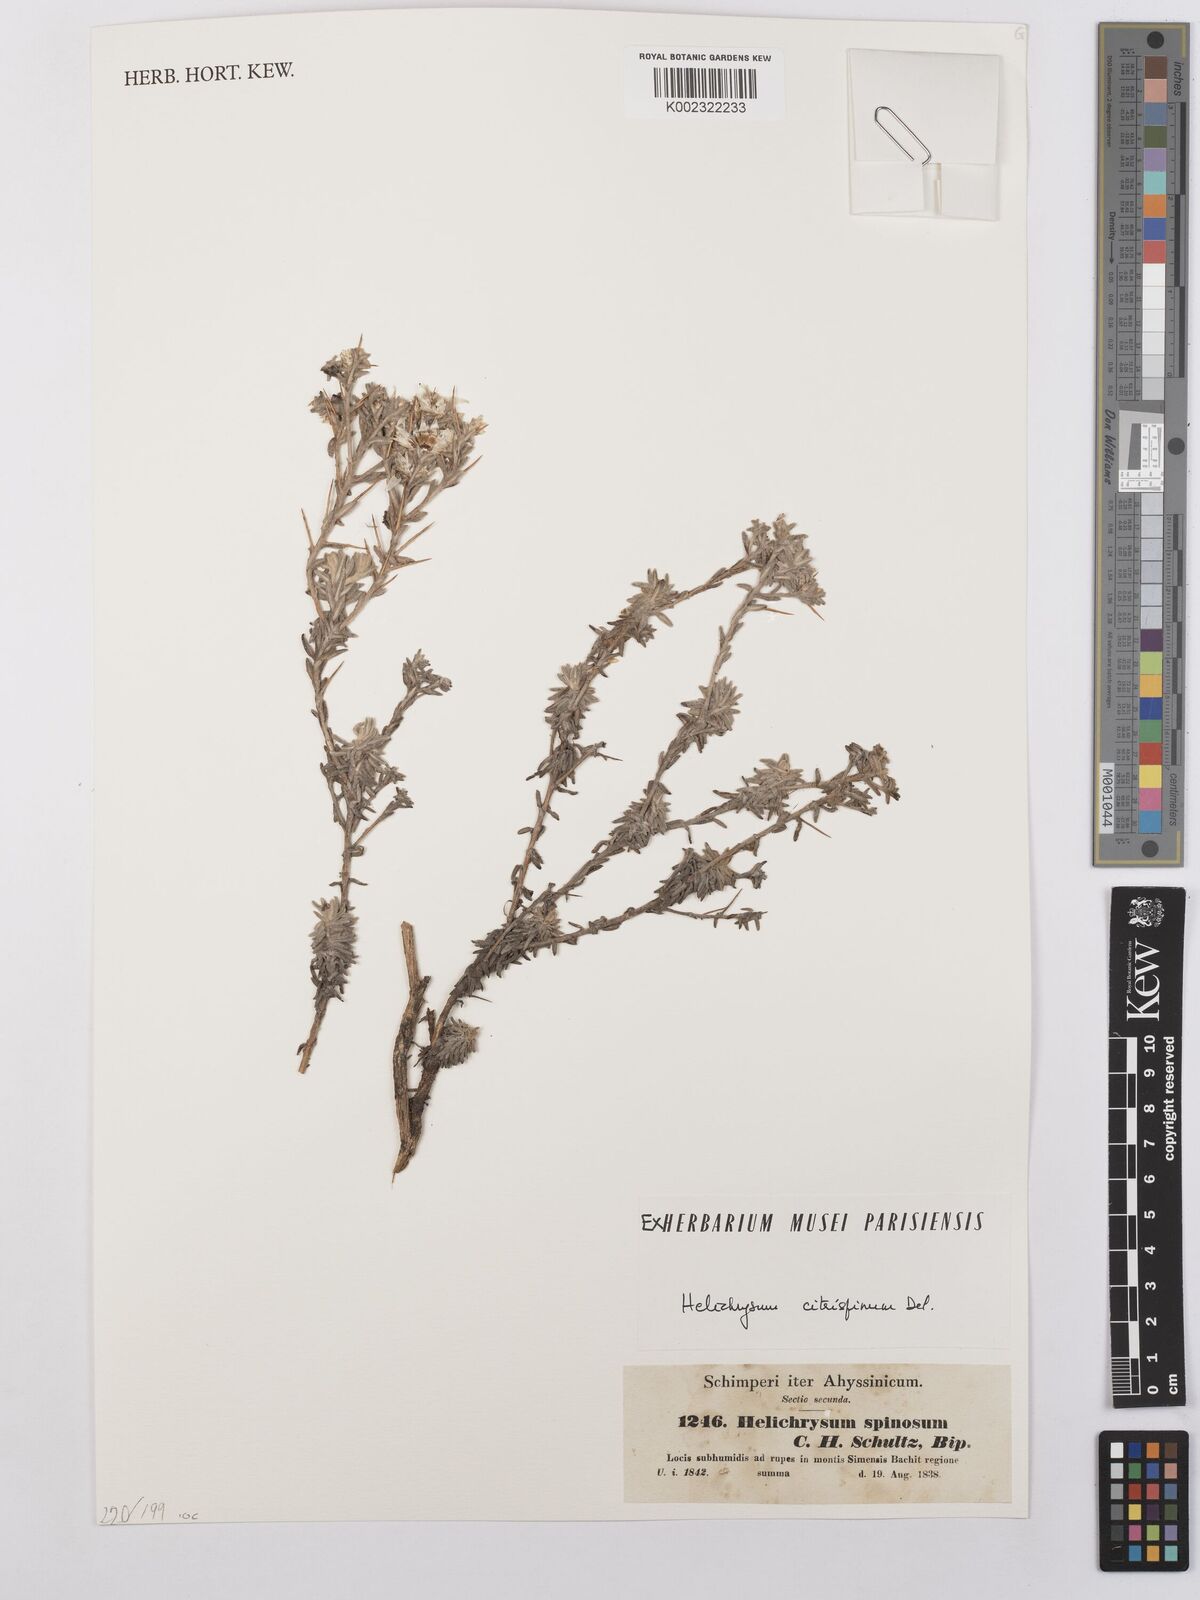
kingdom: Plantae
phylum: Tracheophyta
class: Magnoliopsida
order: Asterales
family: Asteraceae
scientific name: Asteraceae
